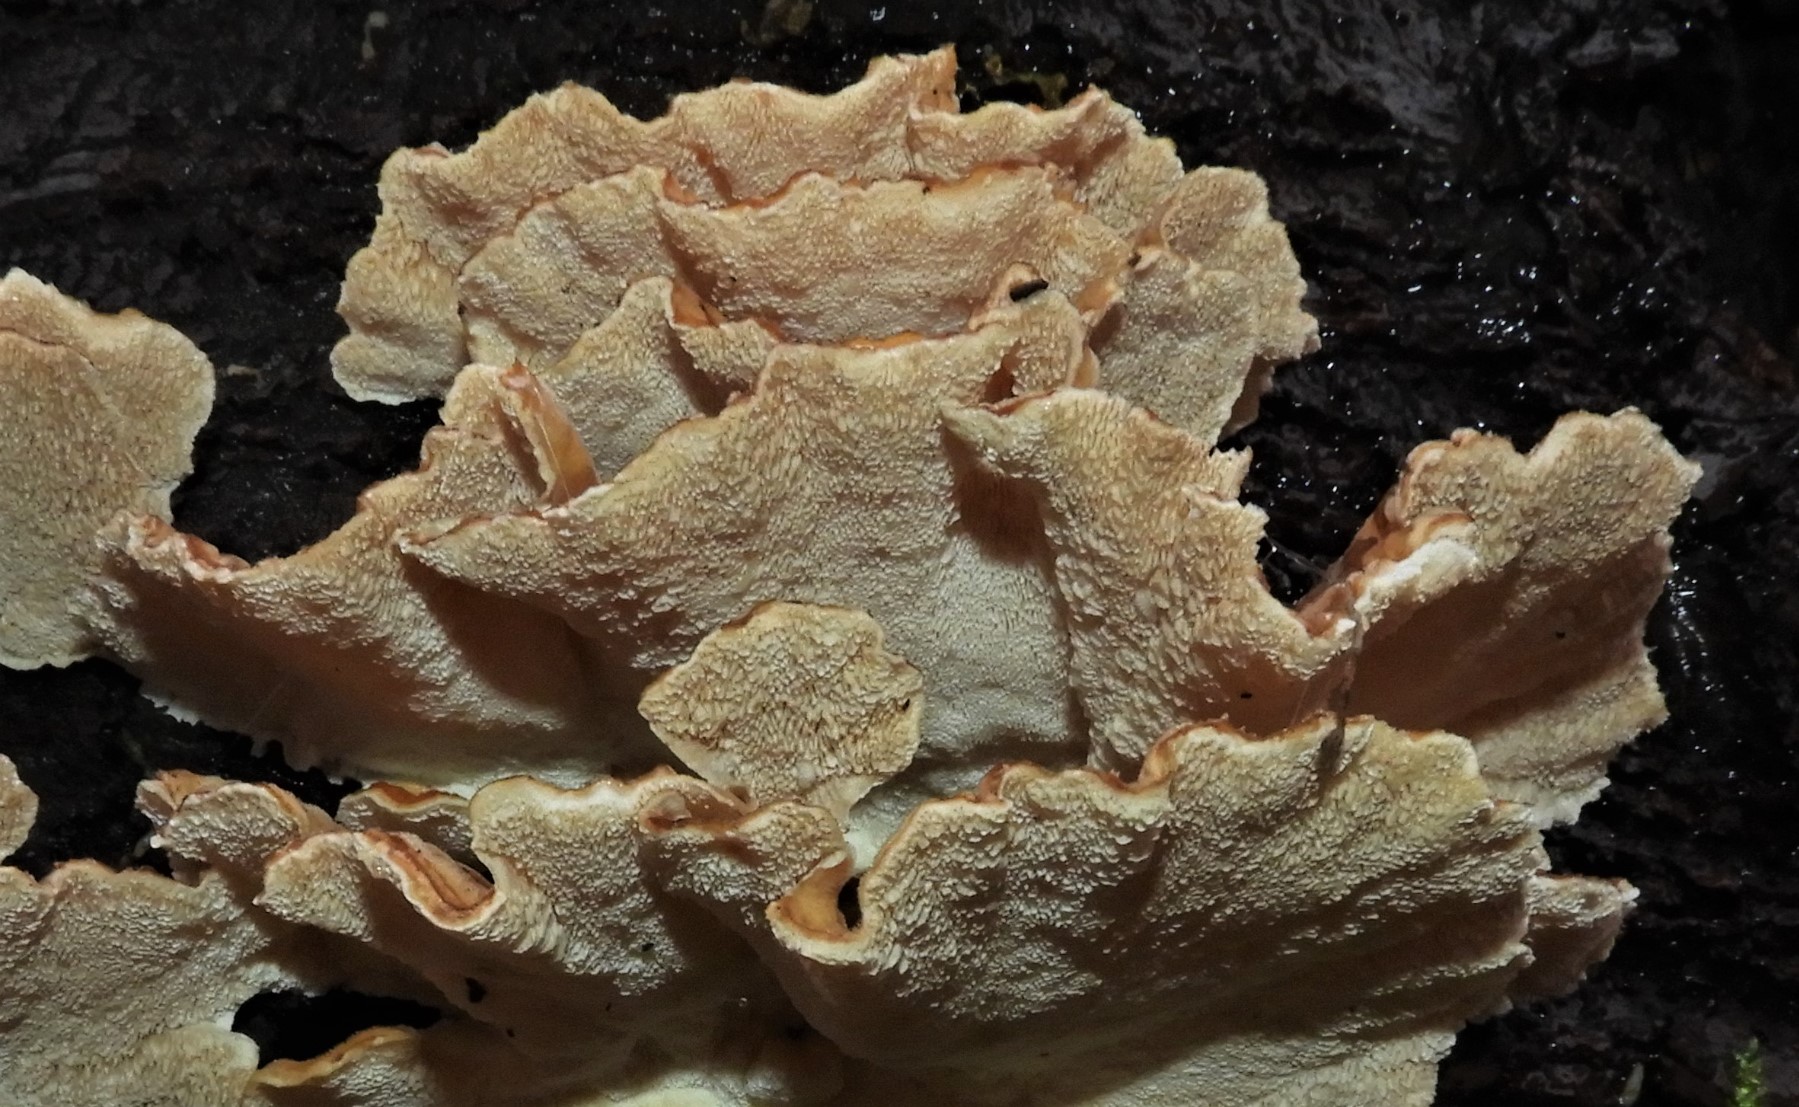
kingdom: Fungi
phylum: Basidiomycota
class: Agaricomycetes
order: Polyporales
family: Polyporaceae
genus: Trametes
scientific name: Trametes versicolor
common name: broget læderporesvamp
